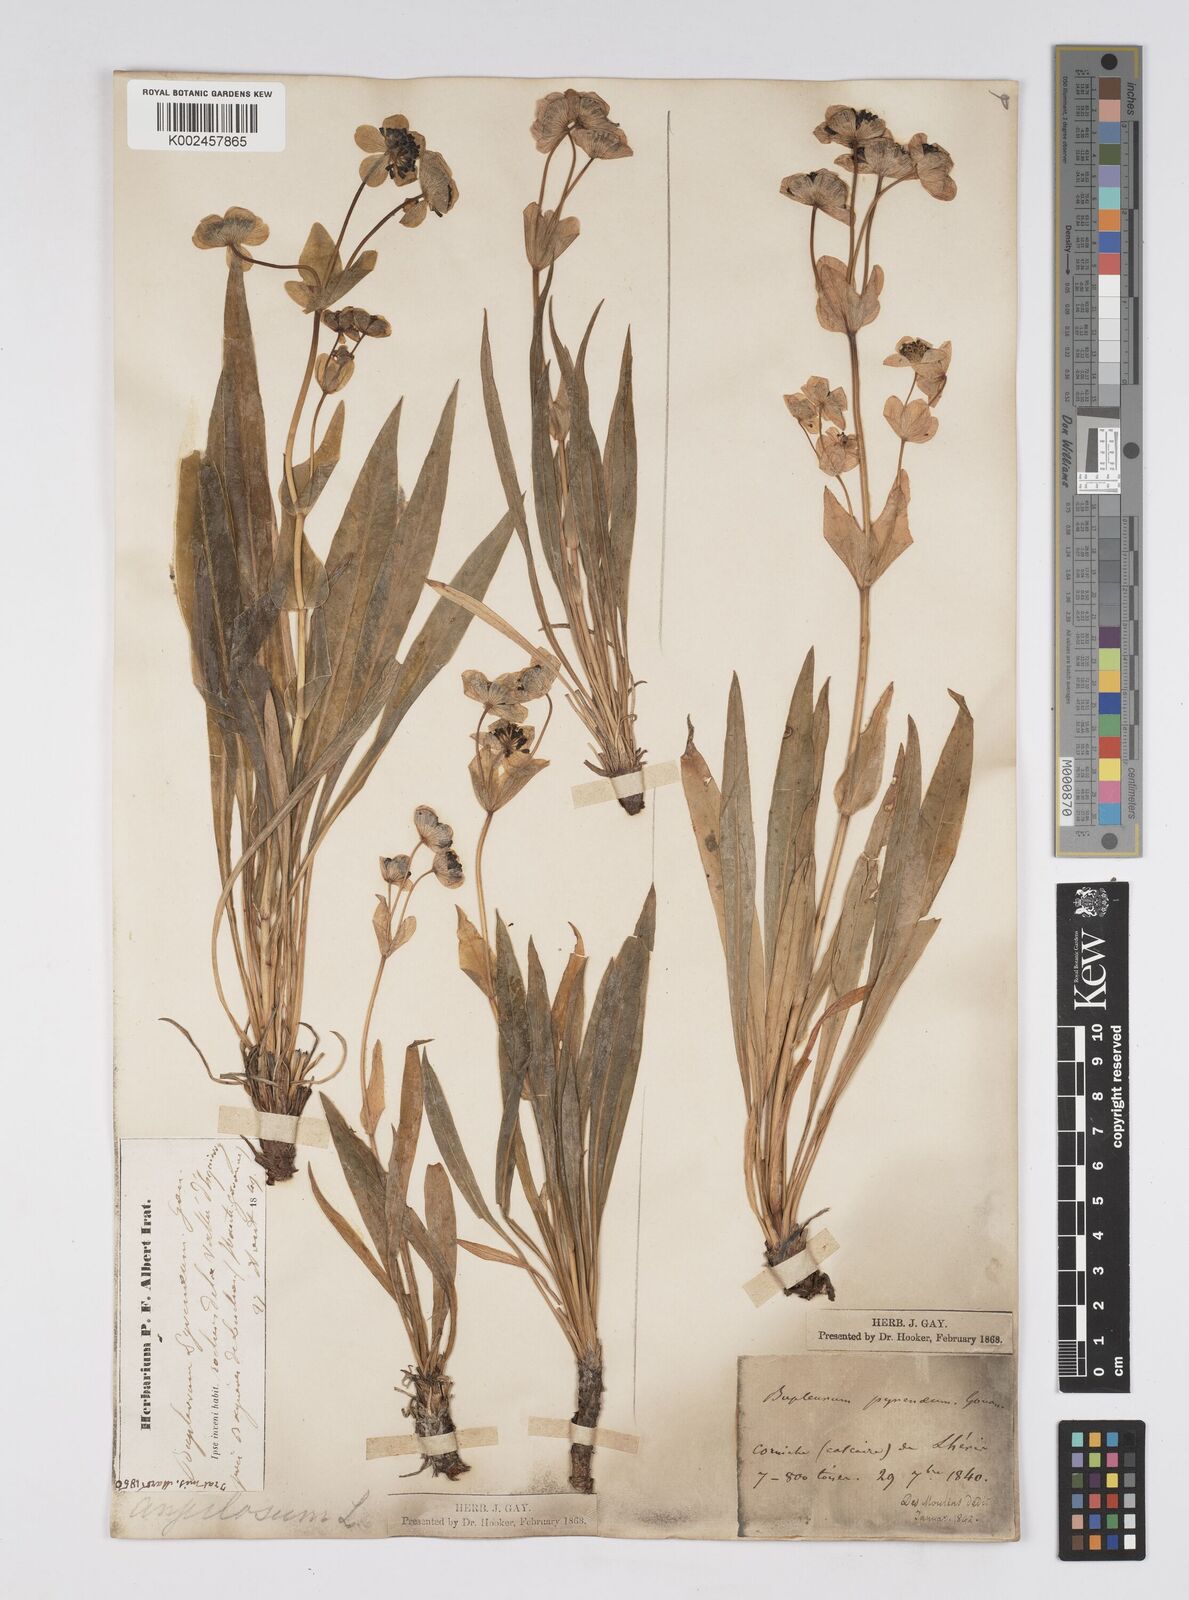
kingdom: Plantae
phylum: Tracheophyta
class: Magnoliopsida
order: Apiales
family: Apiaceae
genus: Bupleurum
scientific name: Bupleurum angulosum
